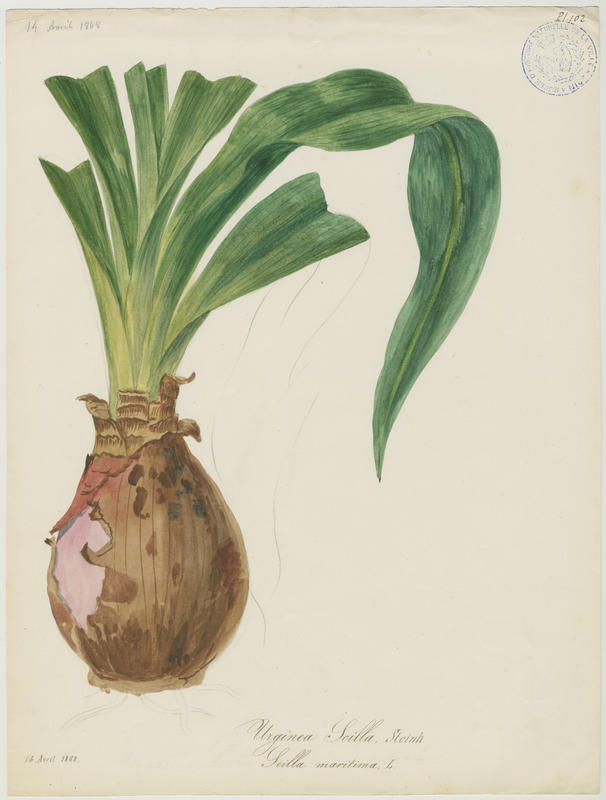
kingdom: Plantae
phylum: Tracheophyta
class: Liliopsida
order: Asparagales
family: Asparagaceae
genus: Drimia
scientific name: Drimia maritima
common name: Maritime squill
